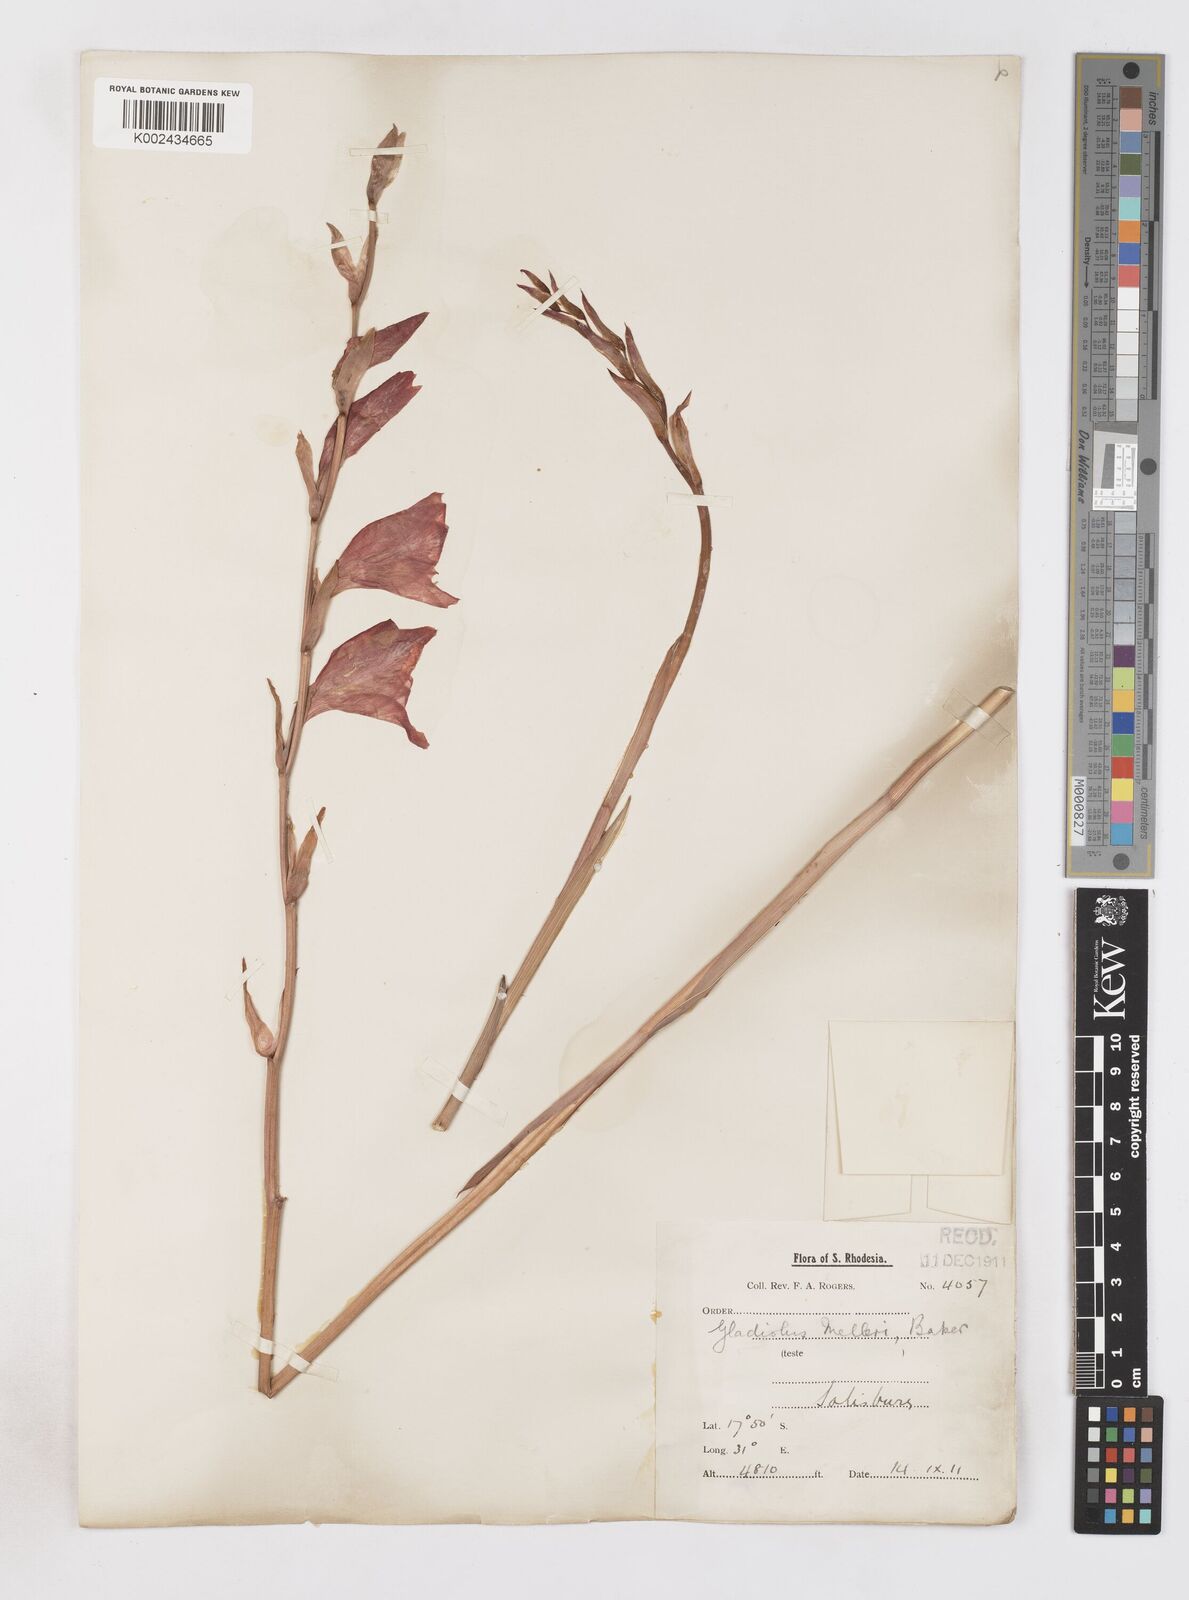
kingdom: Plantae
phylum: Tracheophyta
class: Liliopsida
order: Asparagales
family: Iridaceae
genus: Gladiolus
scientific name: Gladiolus melleri
